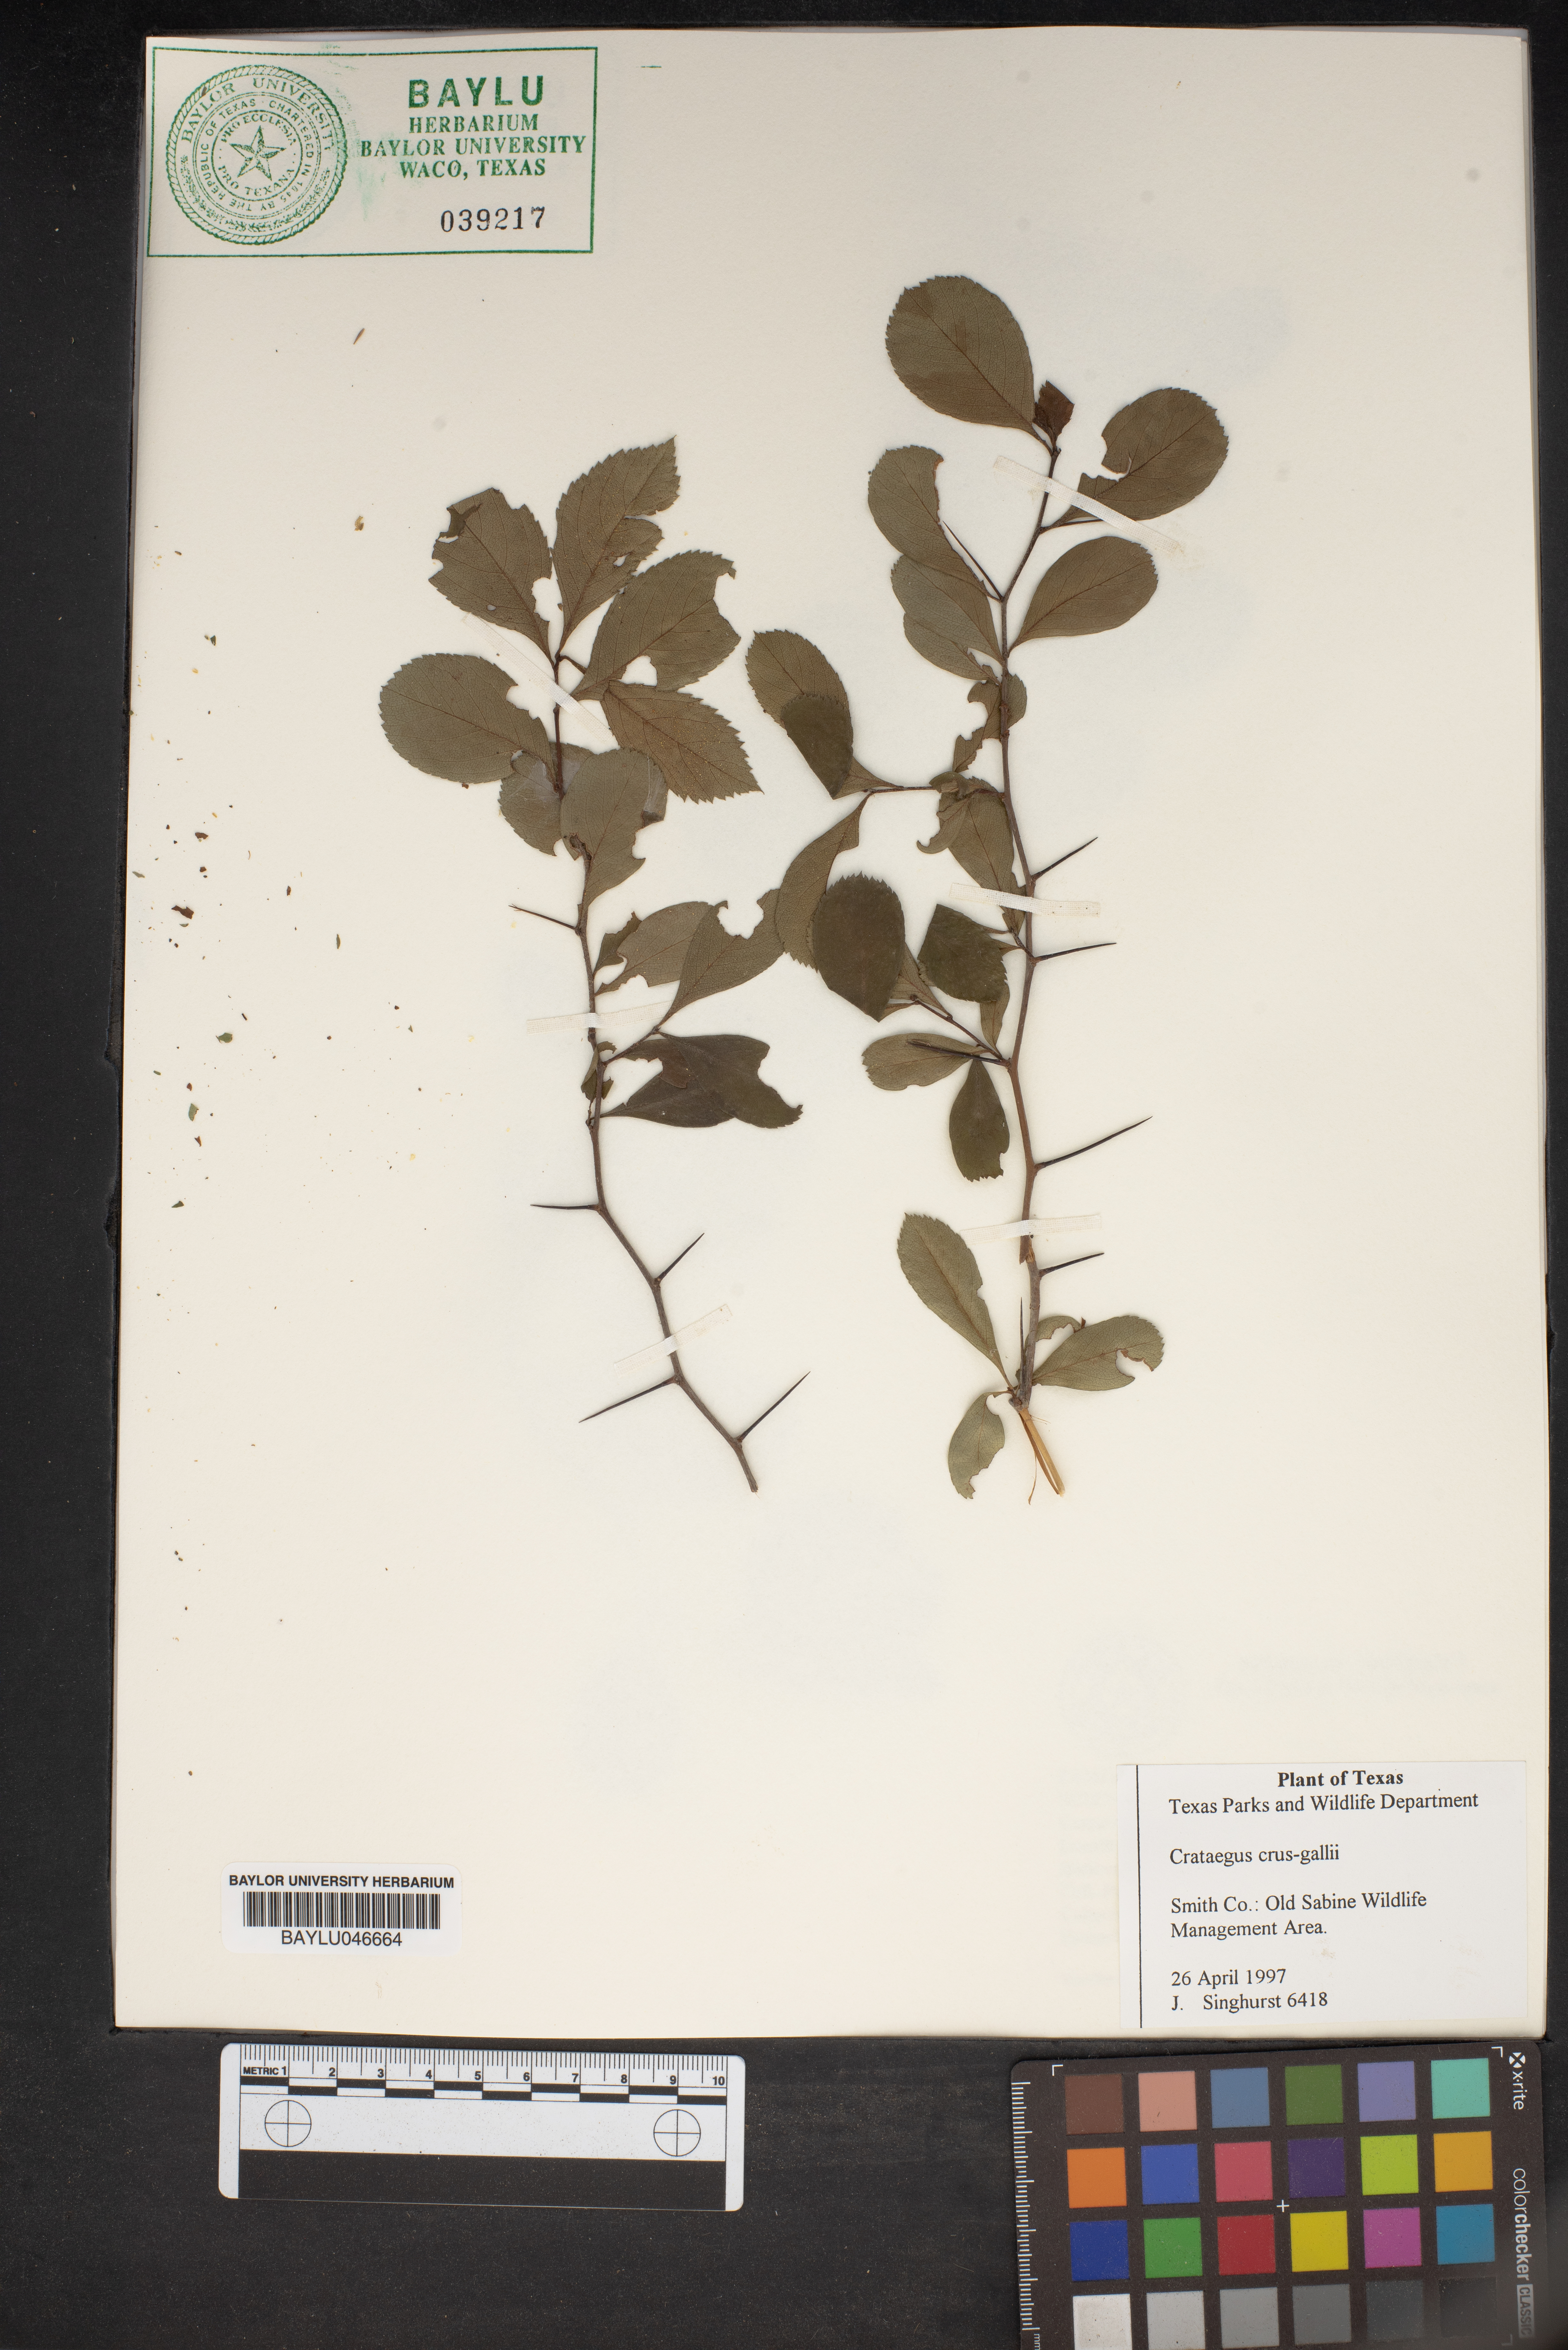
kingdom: Plantae
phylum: Tracheophyta
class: Magnoliopsida
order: Rosales
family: Rosaceae
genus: Crataegus
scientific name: Crataegus crus-galli
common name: Cockspurthorn
